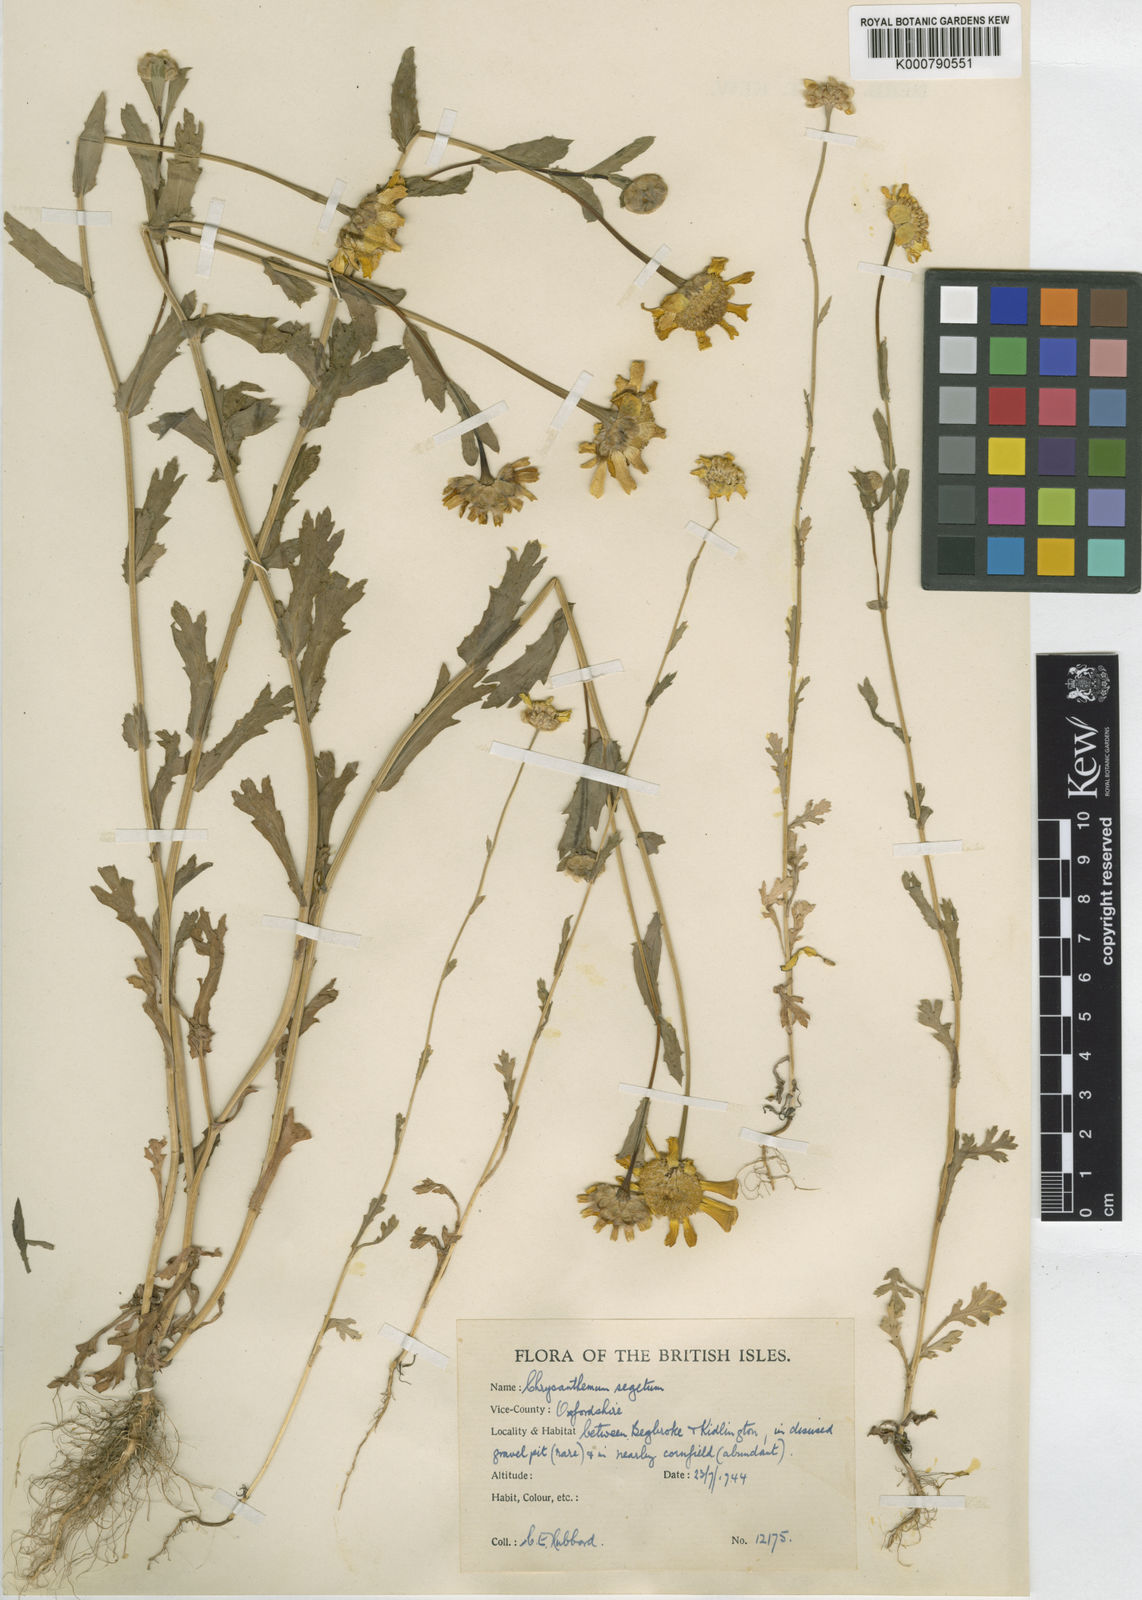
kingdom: Plantae
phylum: Tracheophyta
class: Magnoliopsida
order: Asterales
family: Asteraceae
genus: Glebionis
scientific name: Glebionis segetum
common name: Corndaisy
